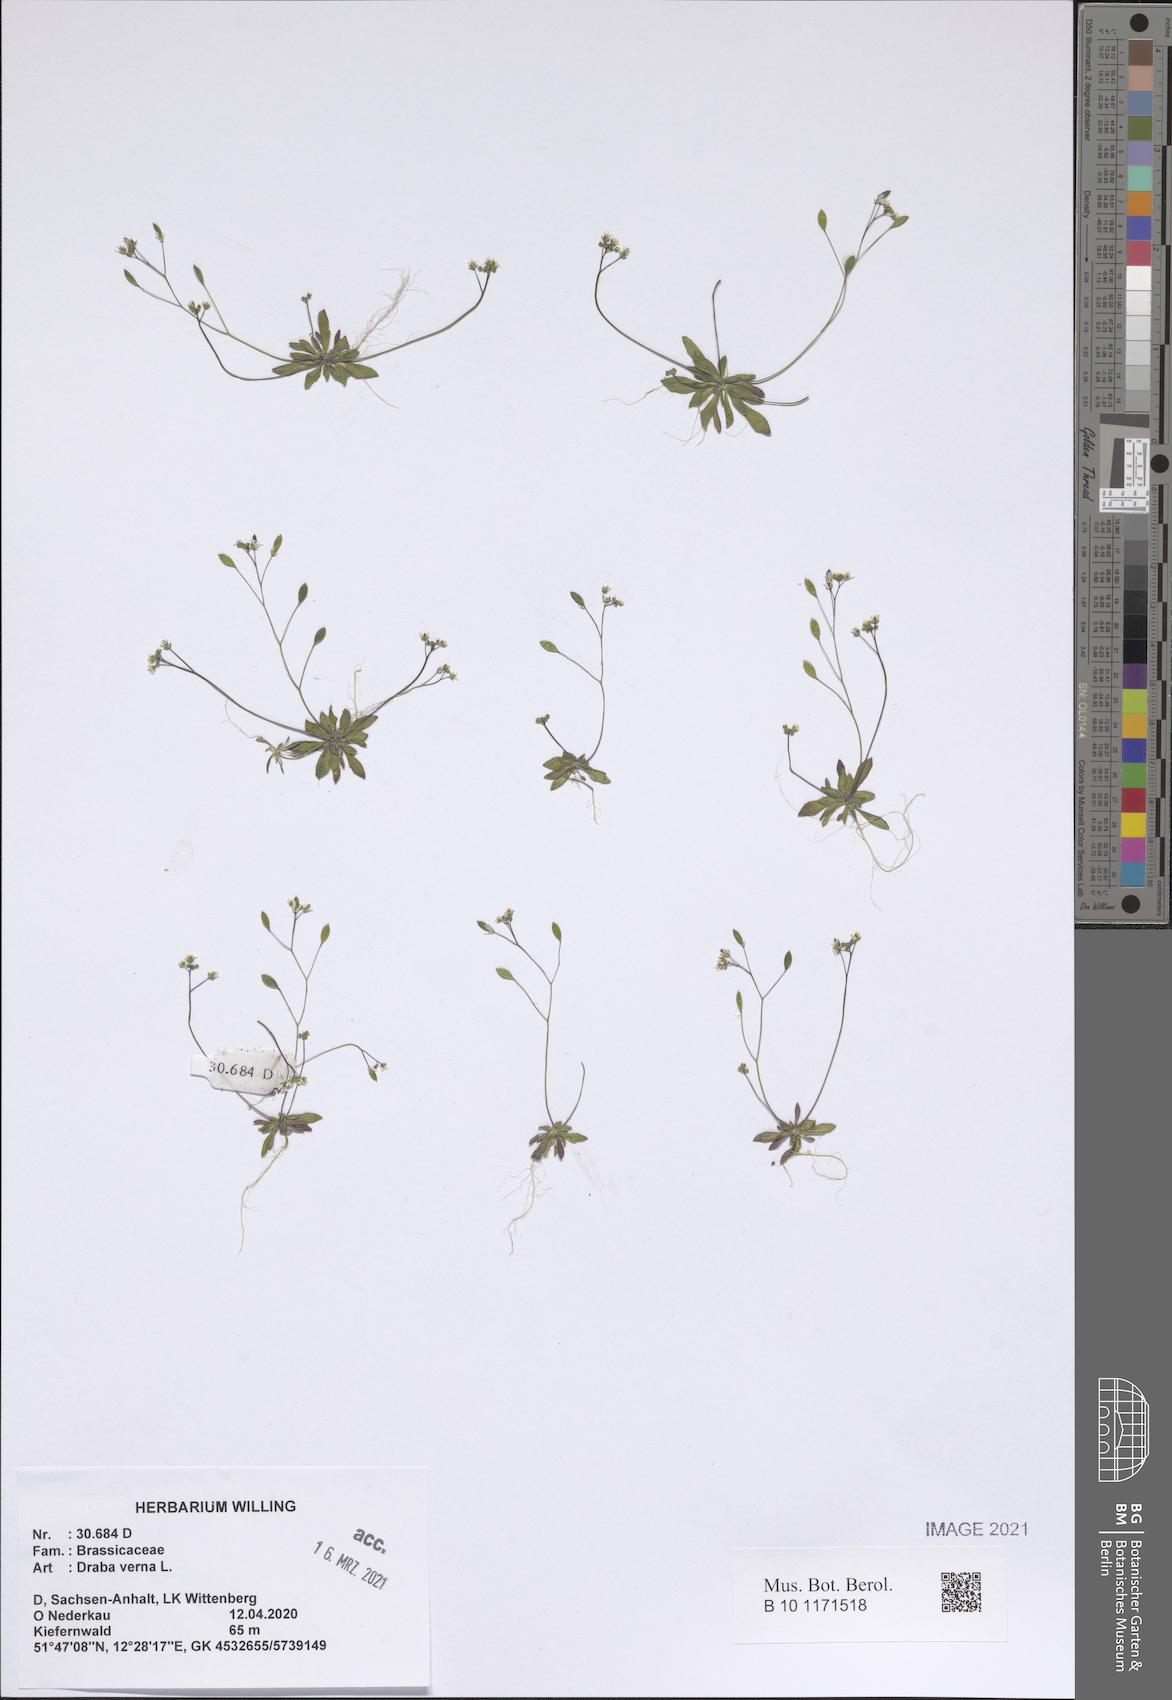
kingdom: Plantae
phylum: Tracheophyta
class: Magnoliopsida
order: Brassicales
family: Brassicaceae
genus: Draba
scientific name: Draba verna
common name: Spring draba
